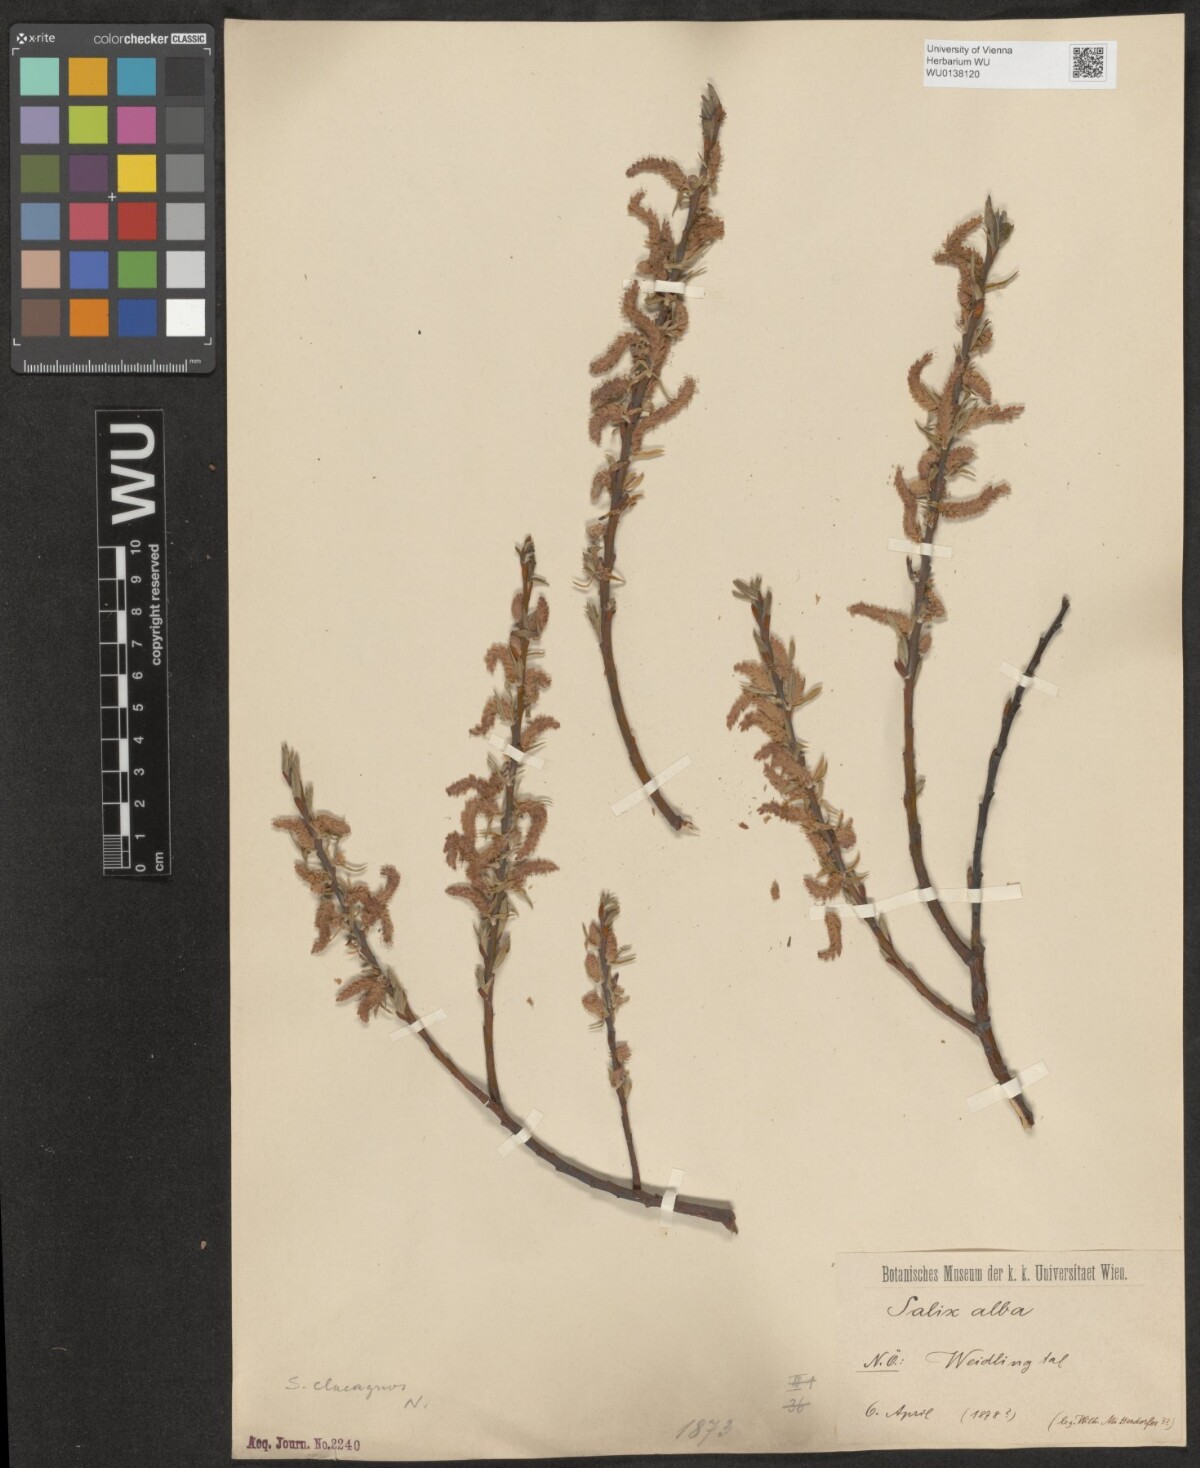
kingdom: Plantae
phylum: Tracheophyta
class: Magnoliopsida
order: Malpighiales
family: Salicaceae
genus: Salix
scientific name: Salix eleagnos
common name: Elaeagnus willow
